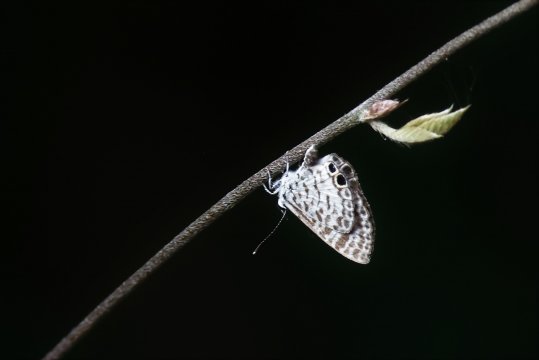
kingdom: Animalia
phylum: Arthropoda
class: Insecta
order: Lepidoptera
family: Lycaenidae
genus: Leptotes
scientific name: Leptotes cassius
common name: Cassius Blue
